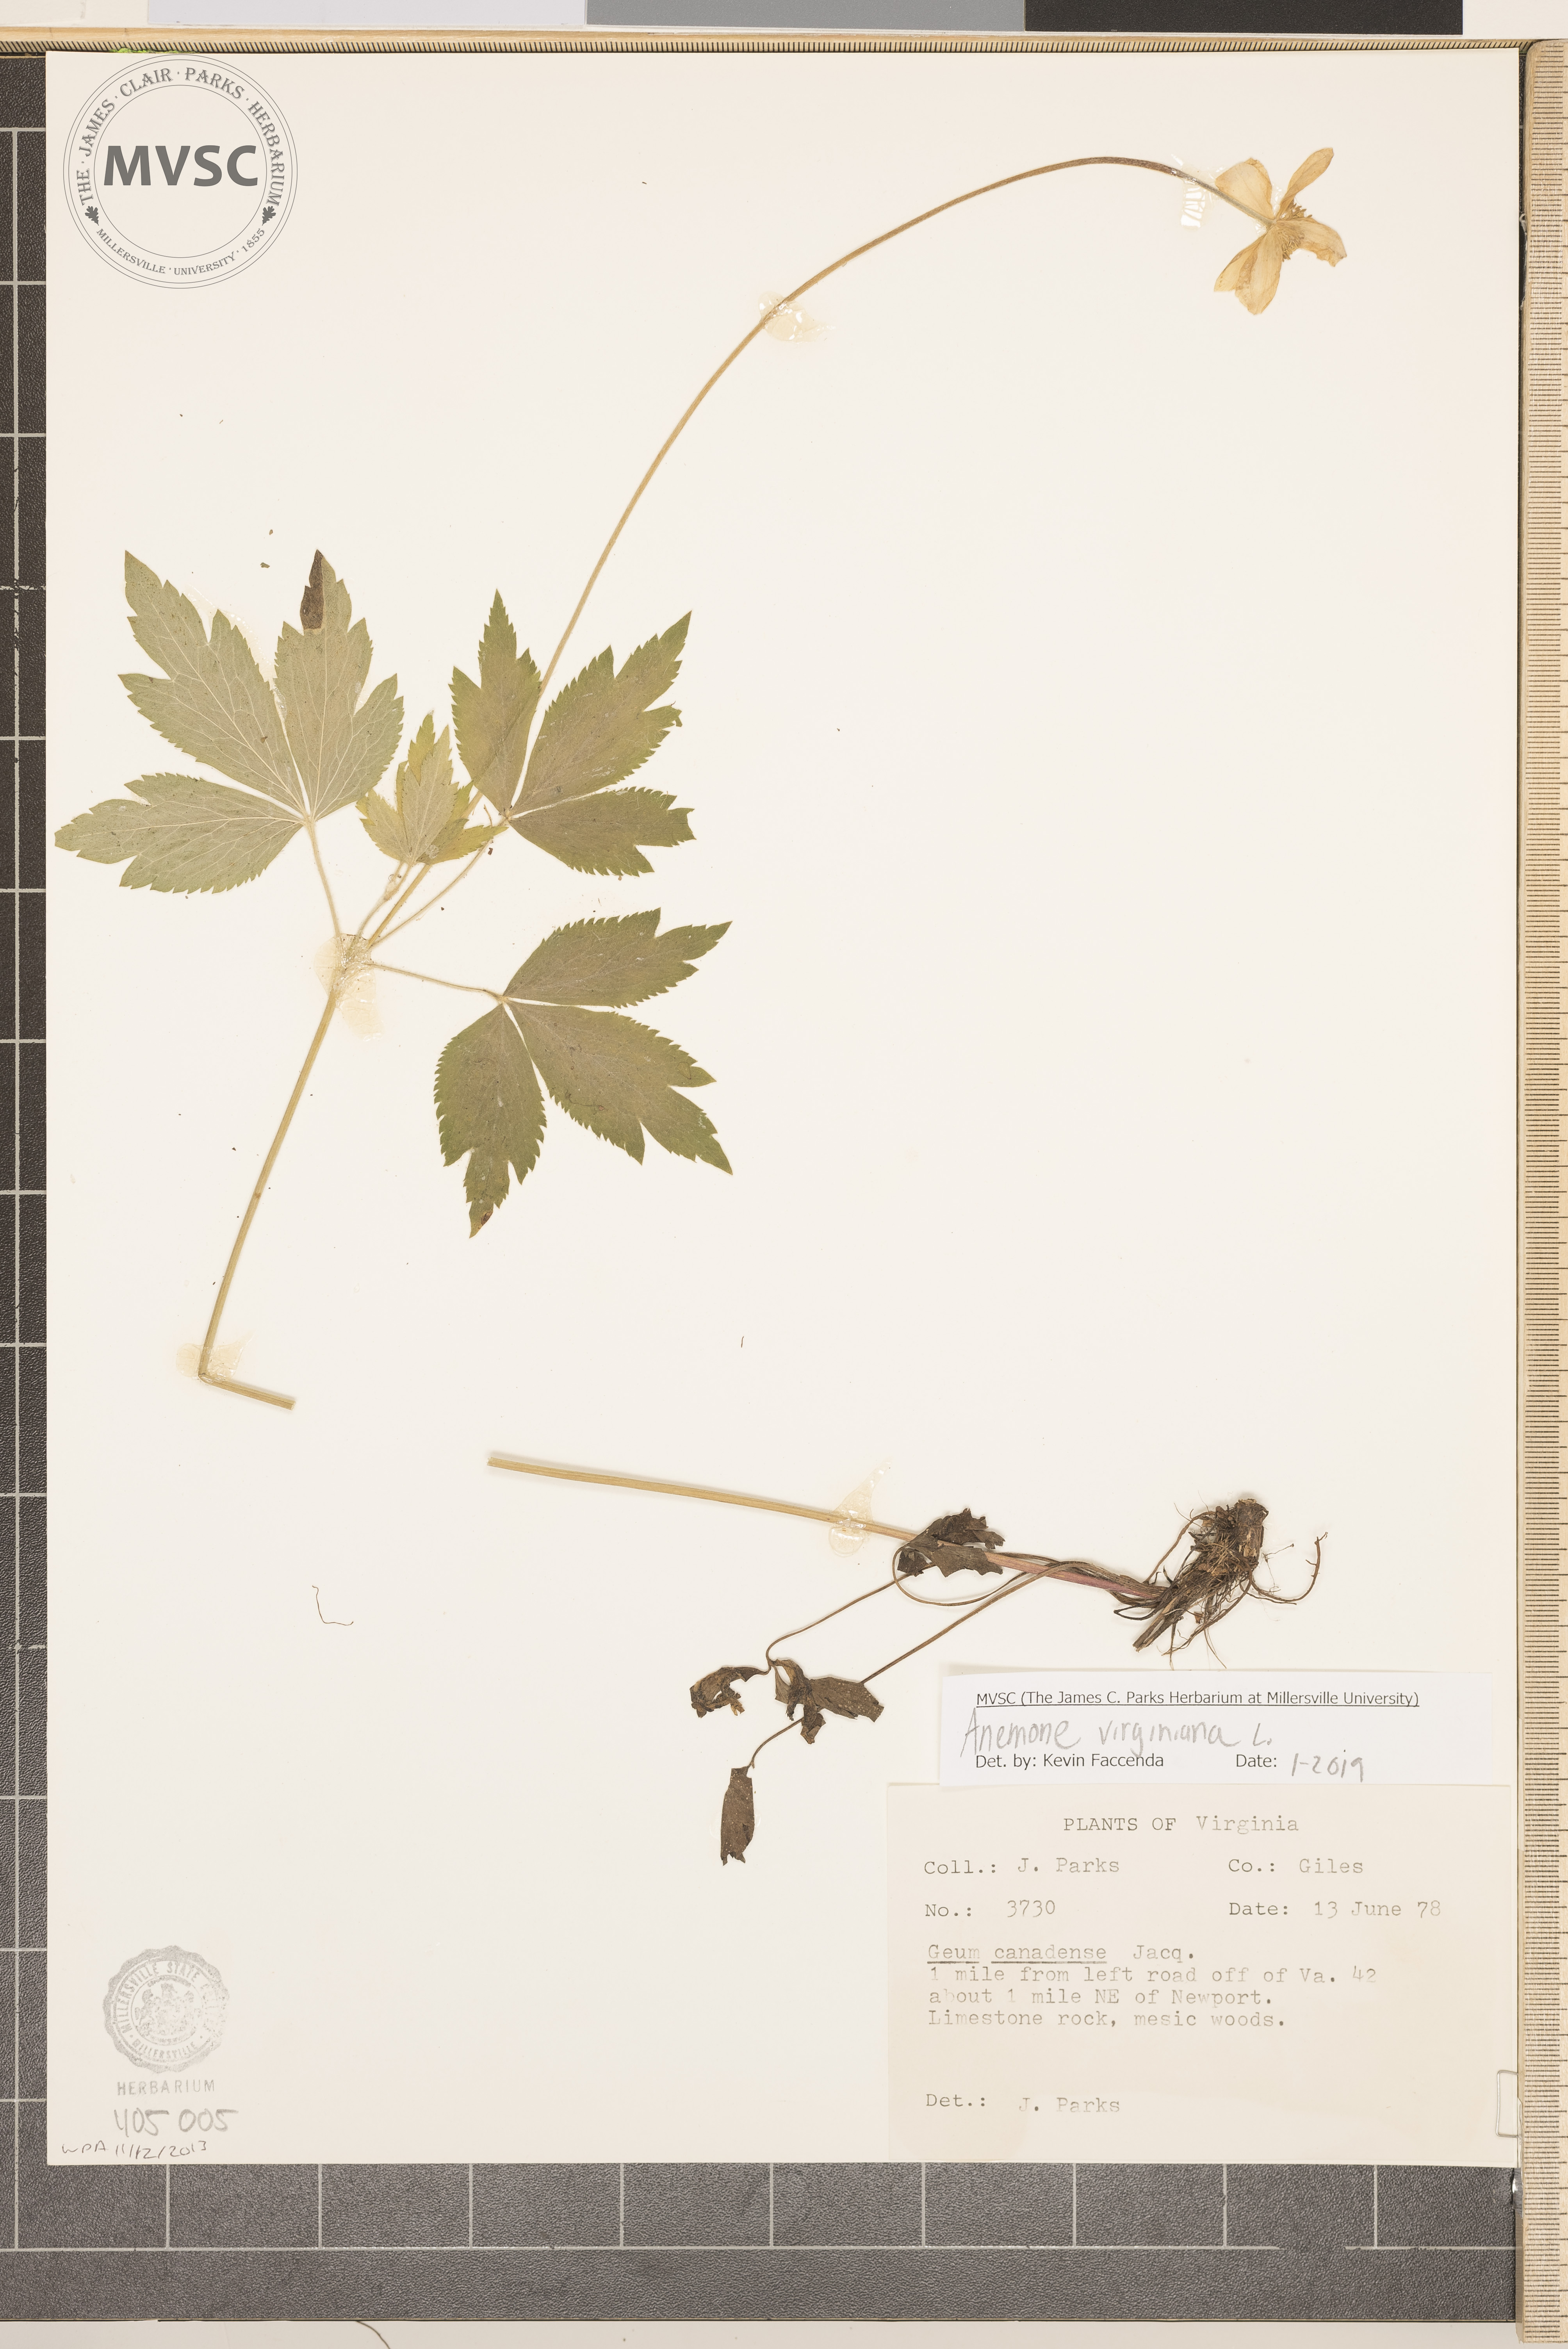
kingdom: Plantae
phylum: Tracheophyta
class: Magnoliopsida
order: Ranunculales
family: Ranunculaceae
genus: Anemone
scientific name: Anemone virginiana
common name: Tall anemone
